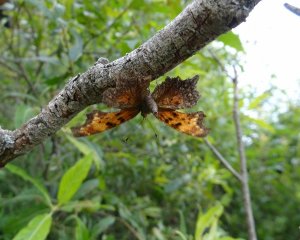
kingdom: Animalia
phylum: Arthropoda
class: Insecta
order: Lepidoptera
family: Nymphalidae
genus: Polygonia
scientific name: Polygonia progne
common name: Gray Comma
